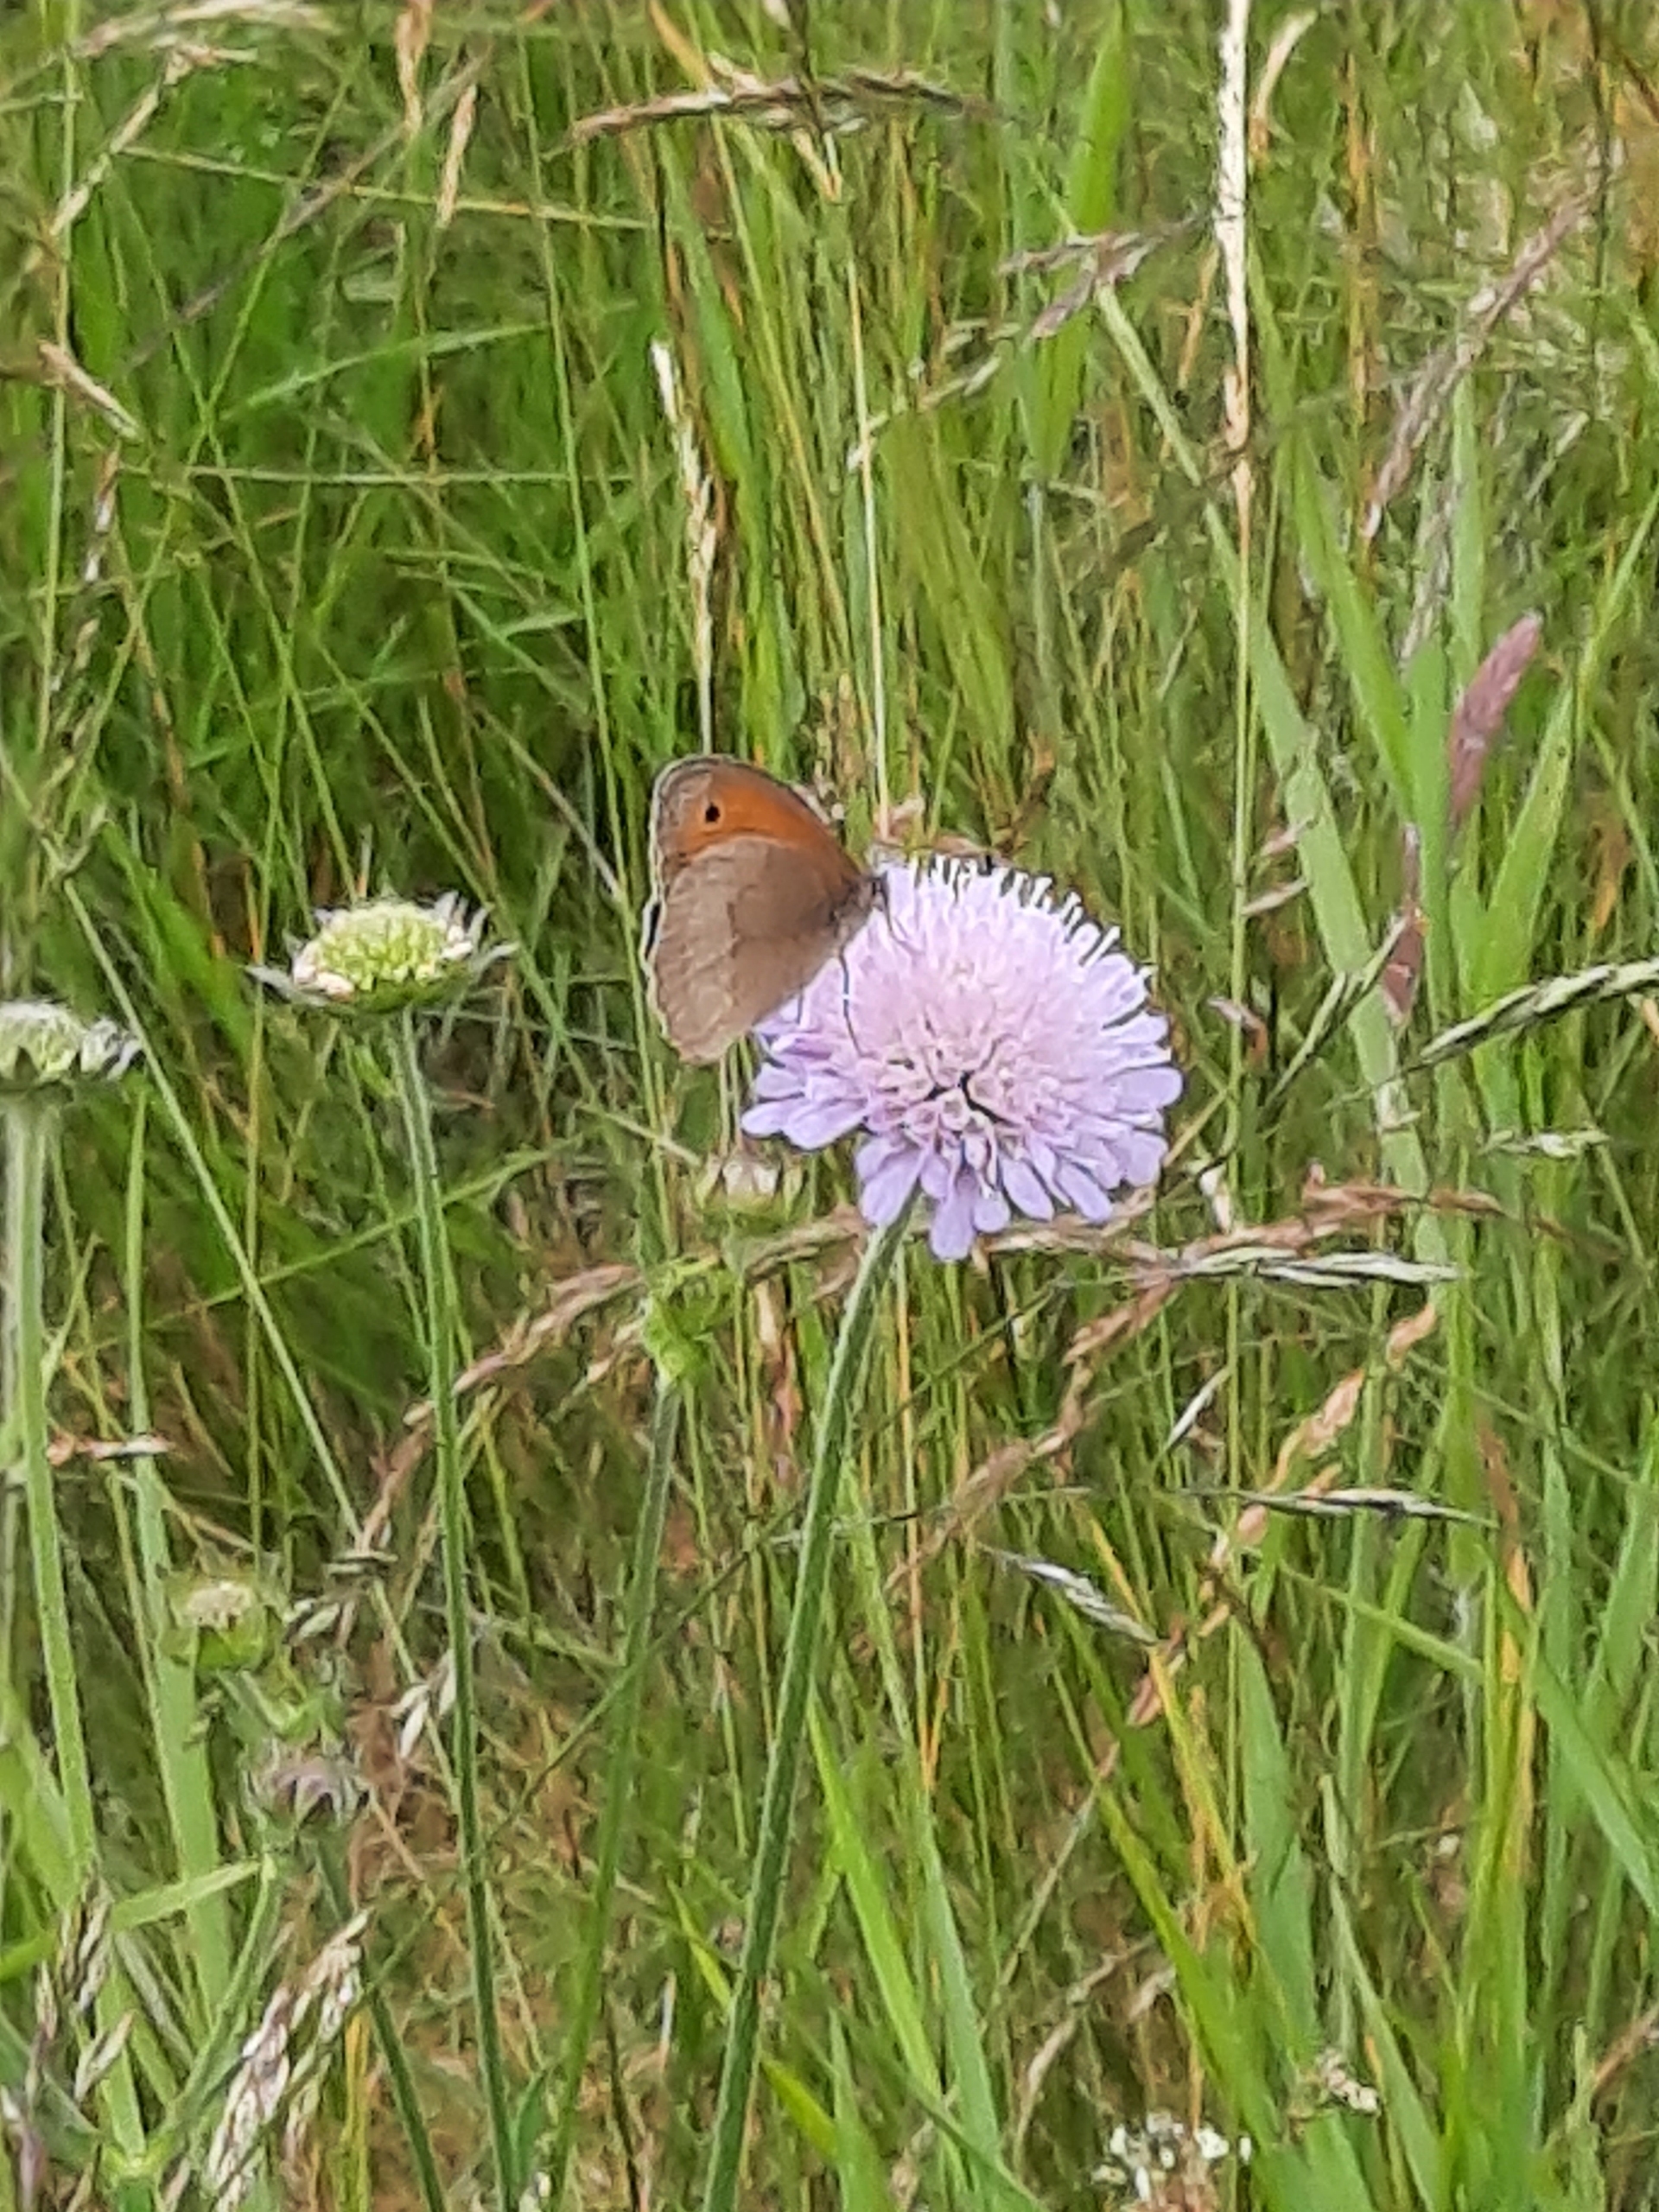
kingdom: Animalia
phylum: Arthropoda
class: Insecta
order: Lepidoptera
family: Nymphalidae
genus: Maniola
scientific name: Maniola jurtina
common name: Græsrandøje
